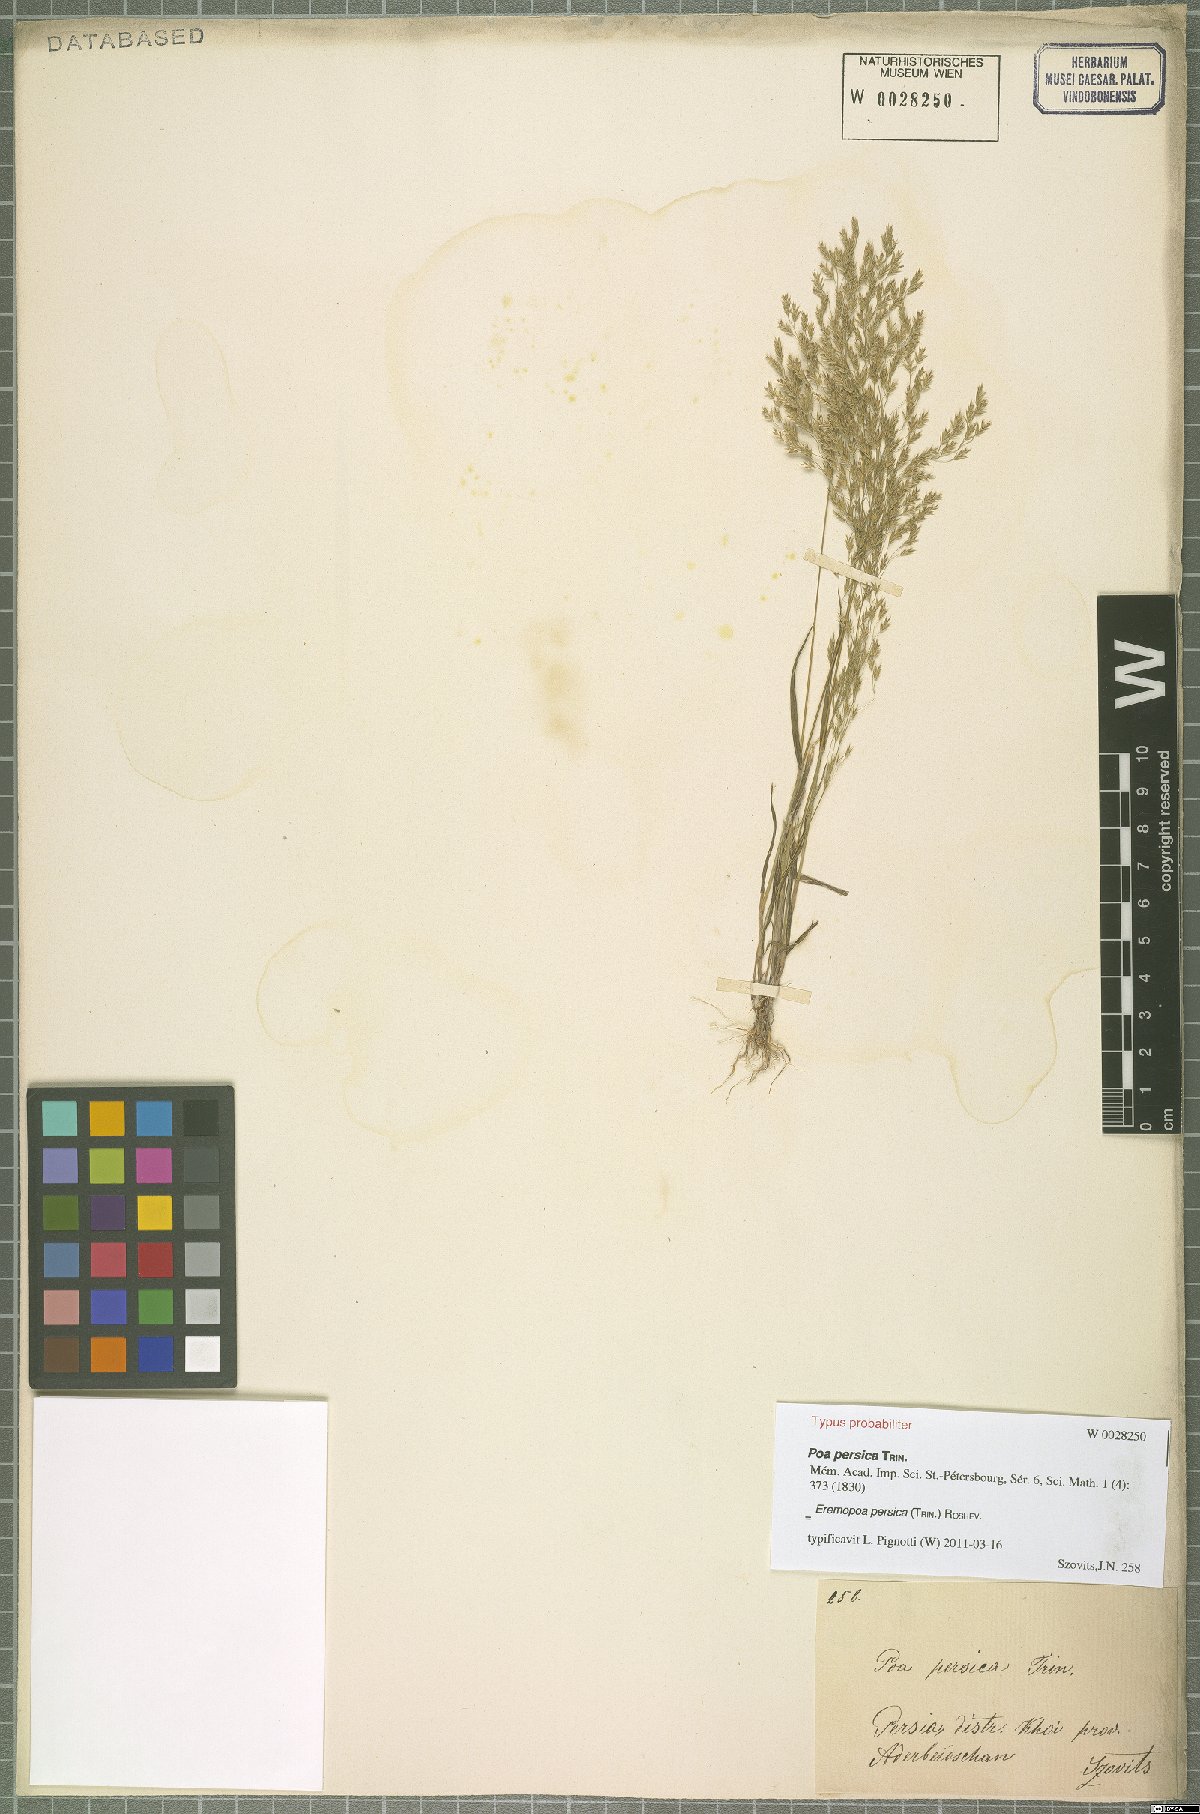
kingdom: Plantae
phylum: Tracheophyta
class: Liliopsida
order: Poales
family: Poaceae
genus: Poa
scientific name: Poa persica
